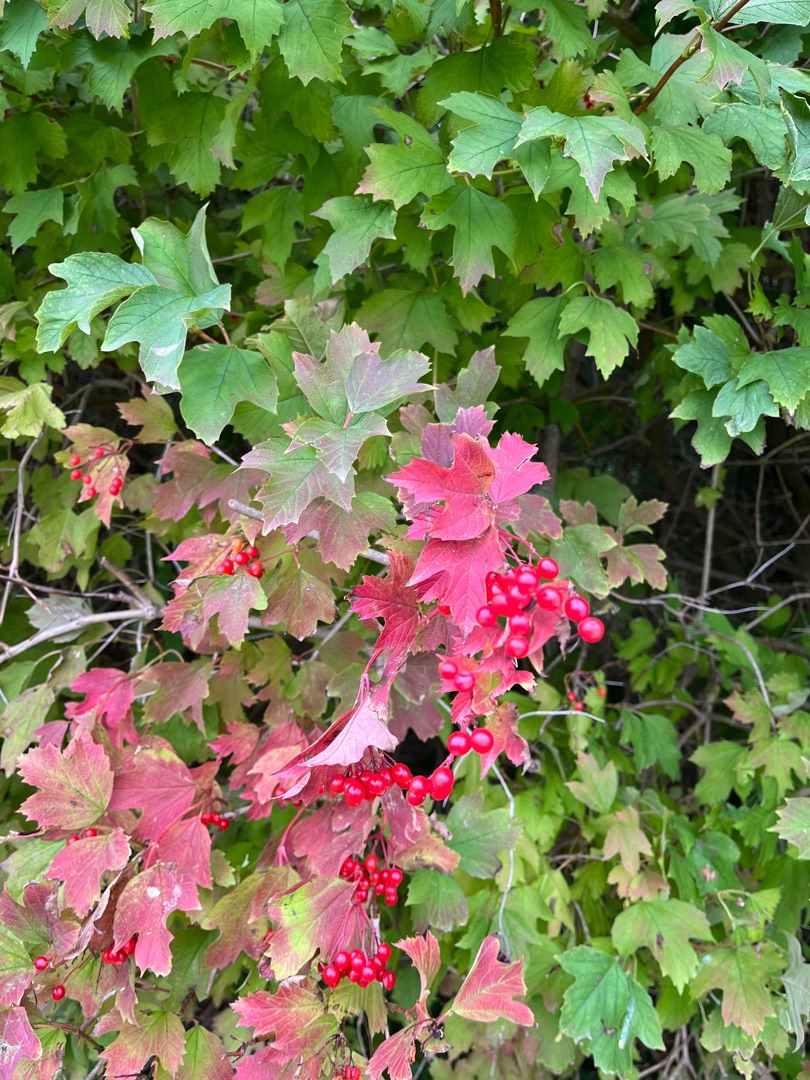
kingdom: Plantae
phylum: Tracheophyta
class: Magnoliopsida
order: Dipsacales
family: Viburnaceae
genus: Viburnum
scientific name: Viburnum opulus
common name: Kvalkved
